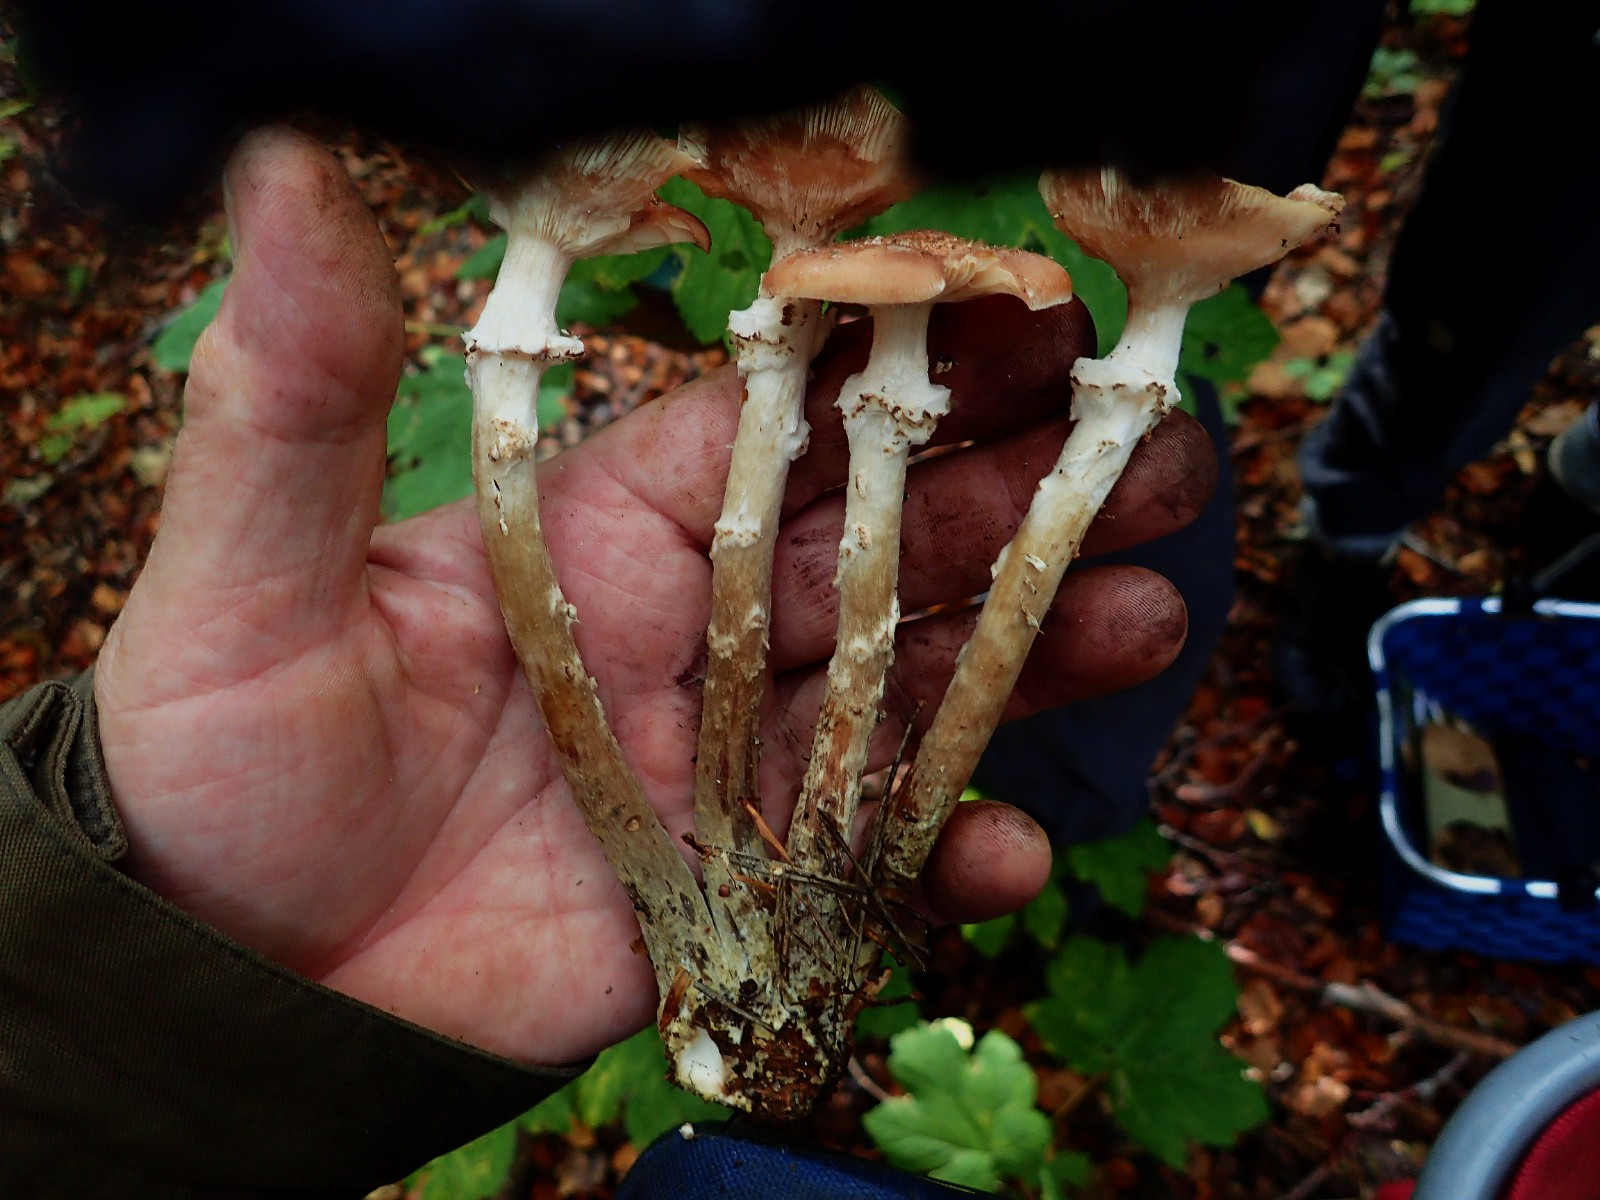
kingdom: Fungi
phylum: Basidiomycota
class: Agaricomycetes
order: Agaricales
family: Physalacriaceae
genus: Armillaria
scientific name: Armillaria ostoyae
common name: mørk honningsvamp
